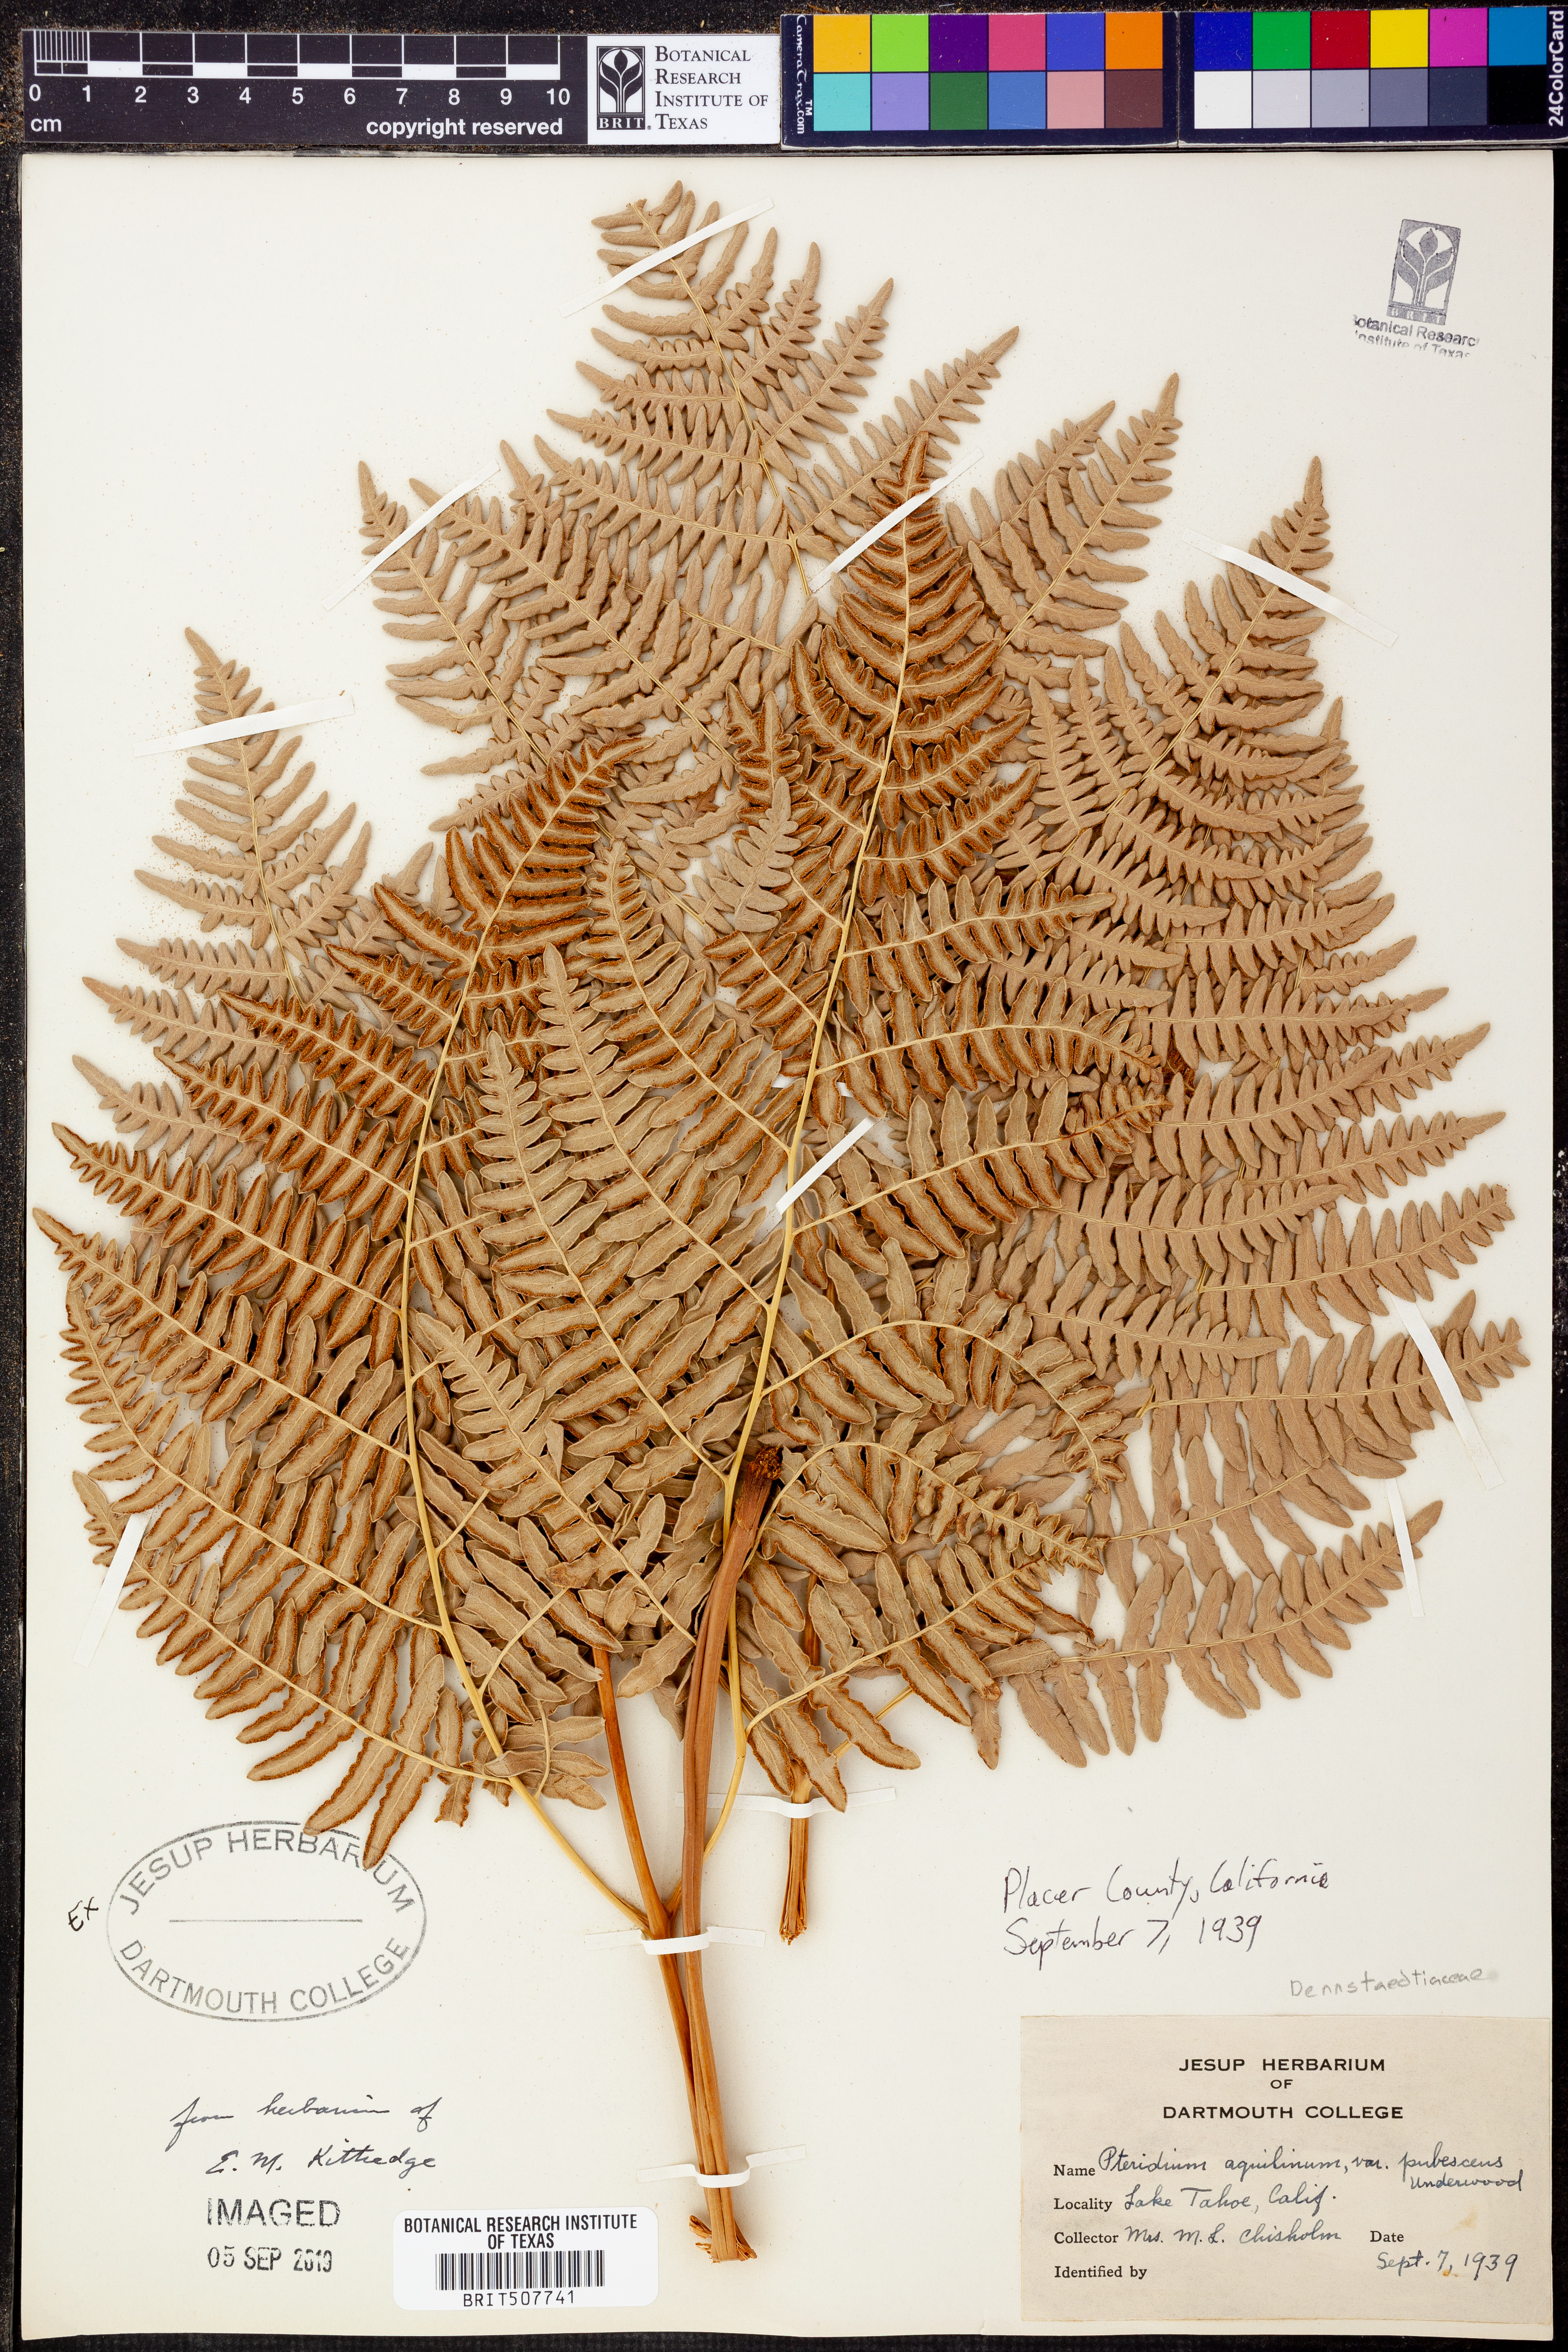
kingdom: Plantae
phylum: Tracheophyta
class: Polypodiopsida
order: Polypodiales
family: Dennstaedtiaceae
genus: Pteridium
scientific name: Pteridium aquilinum
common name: Bracken
